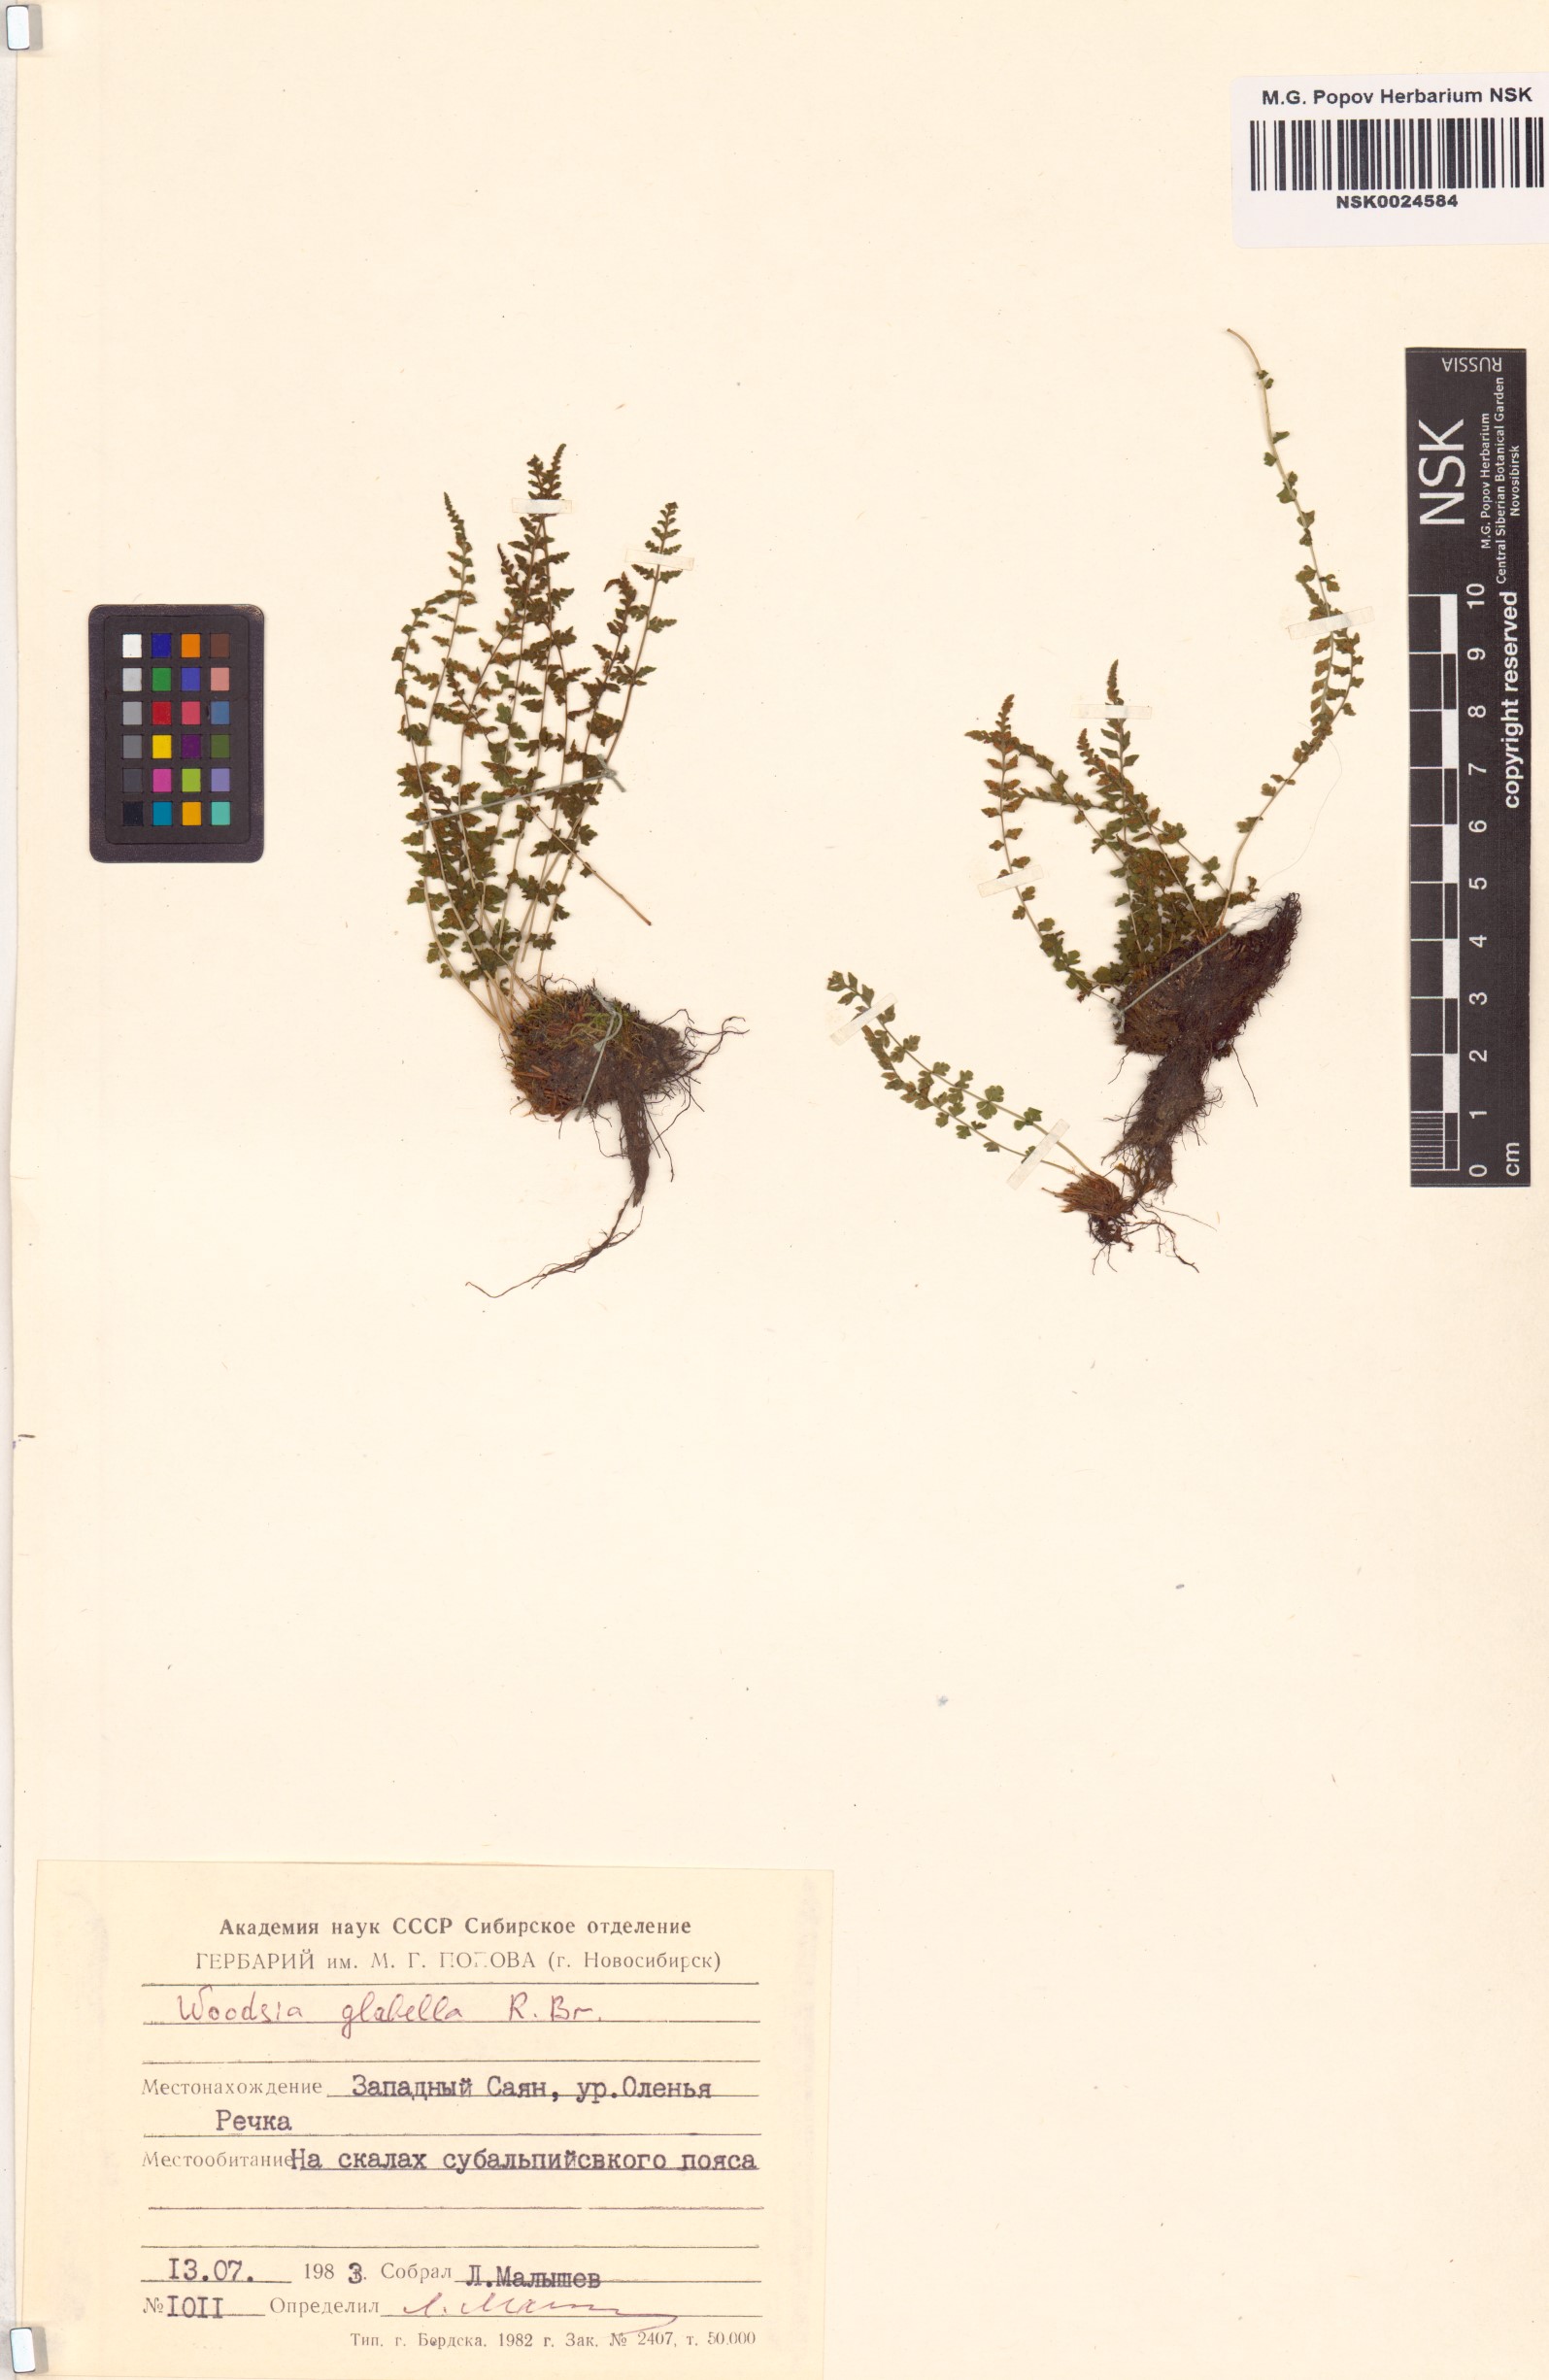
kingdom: Plantae
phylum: Tracheophyta
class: Polypodiopsida
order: Polypodiales
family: Woodsiaceae
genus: Woodsia
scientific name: Woodsia glabella
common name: Smooth woodsia
